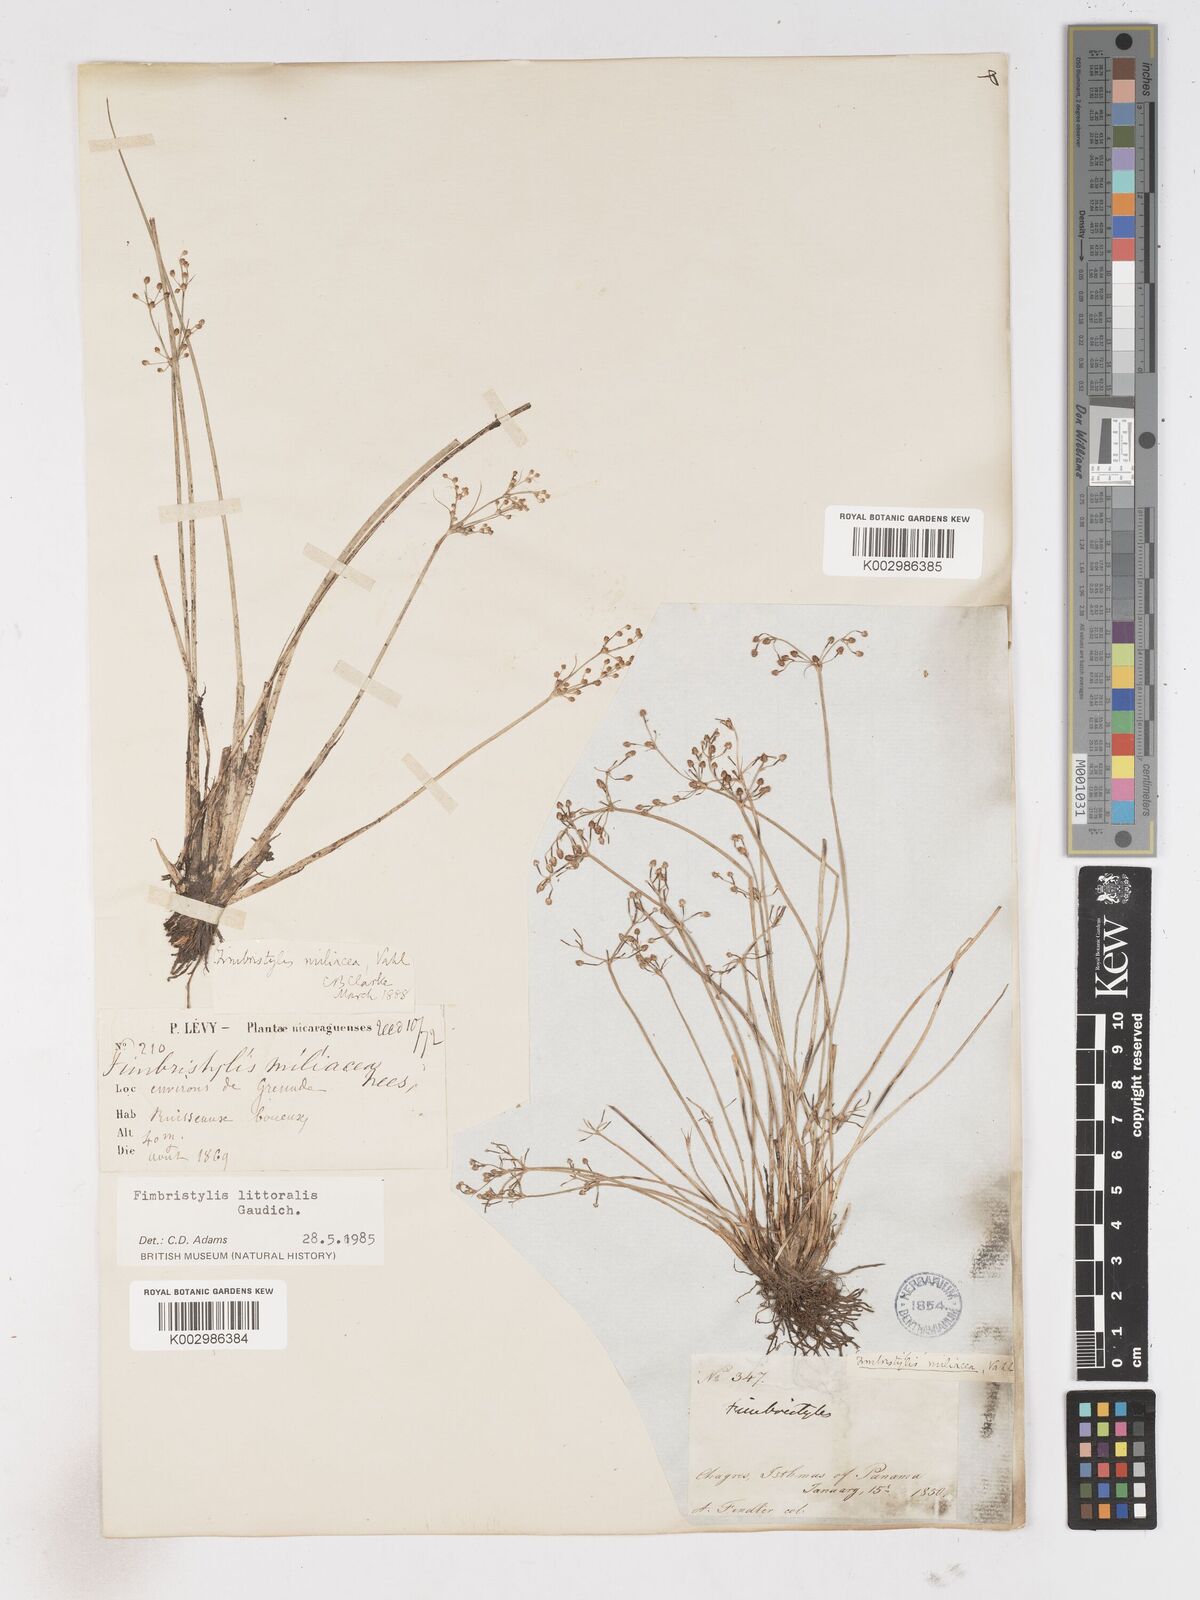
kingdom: Plantae
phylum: Tracheophyta
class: Liliopsida
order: Poales
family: Cyperaceae
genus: Fimbristylis
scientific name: Fimbristylis littoralis
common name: Fimbry
